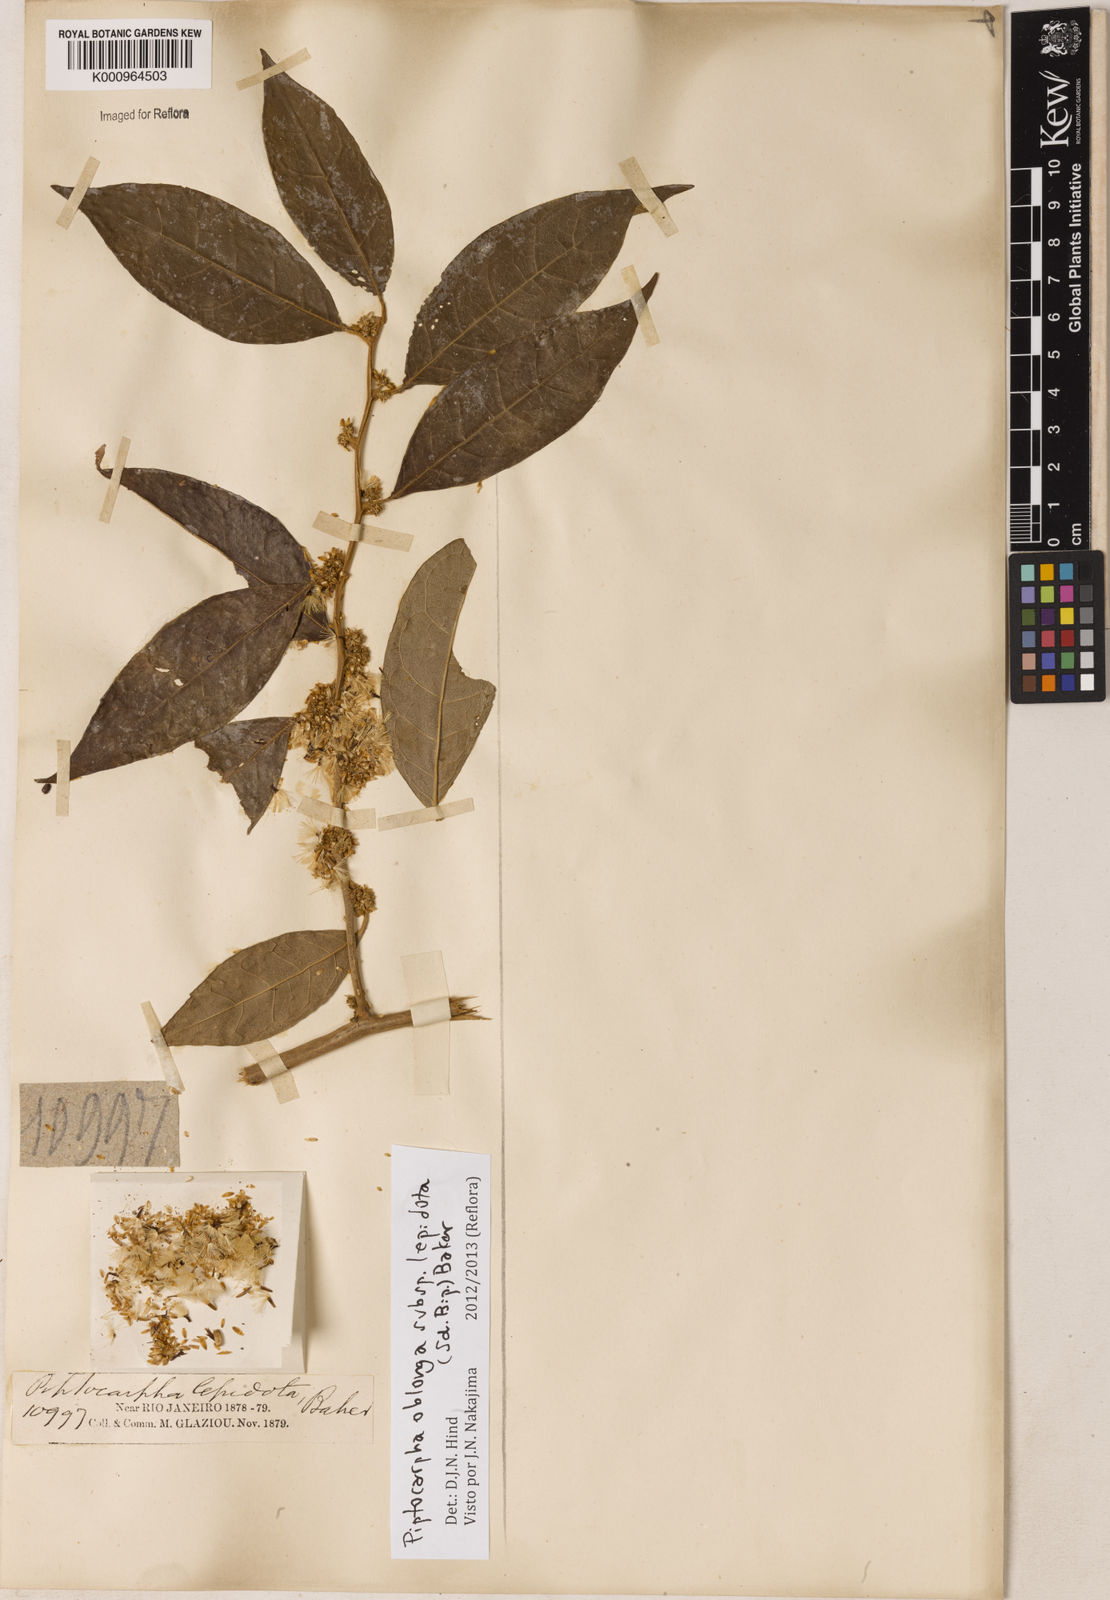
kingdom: Plantae
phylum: Tracheophyta
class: Magnoliopsida
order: Asterales
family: Asteraceae
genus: Piptocarpha
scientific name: Piptocarpha oblonga
